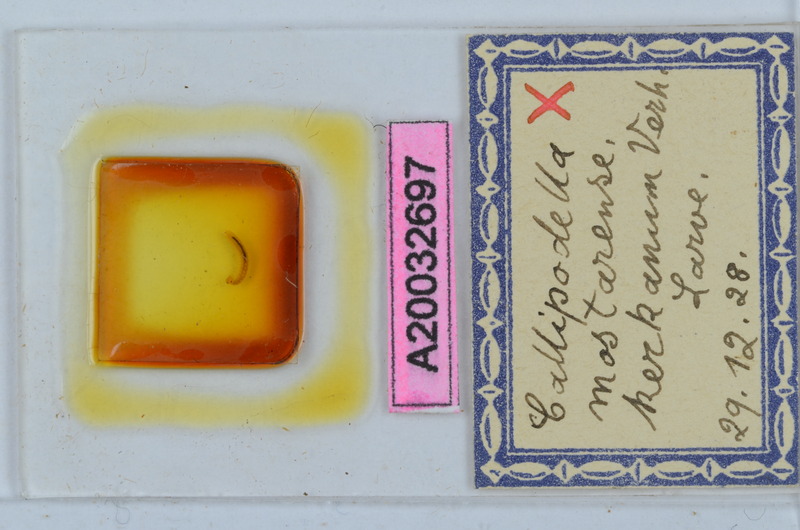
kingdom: Animalia
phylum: Arthropoda
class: Diplopoda
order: Callipodida
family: Schizopetalidae
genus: Callipodella
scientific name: Callipodella mostarensis
